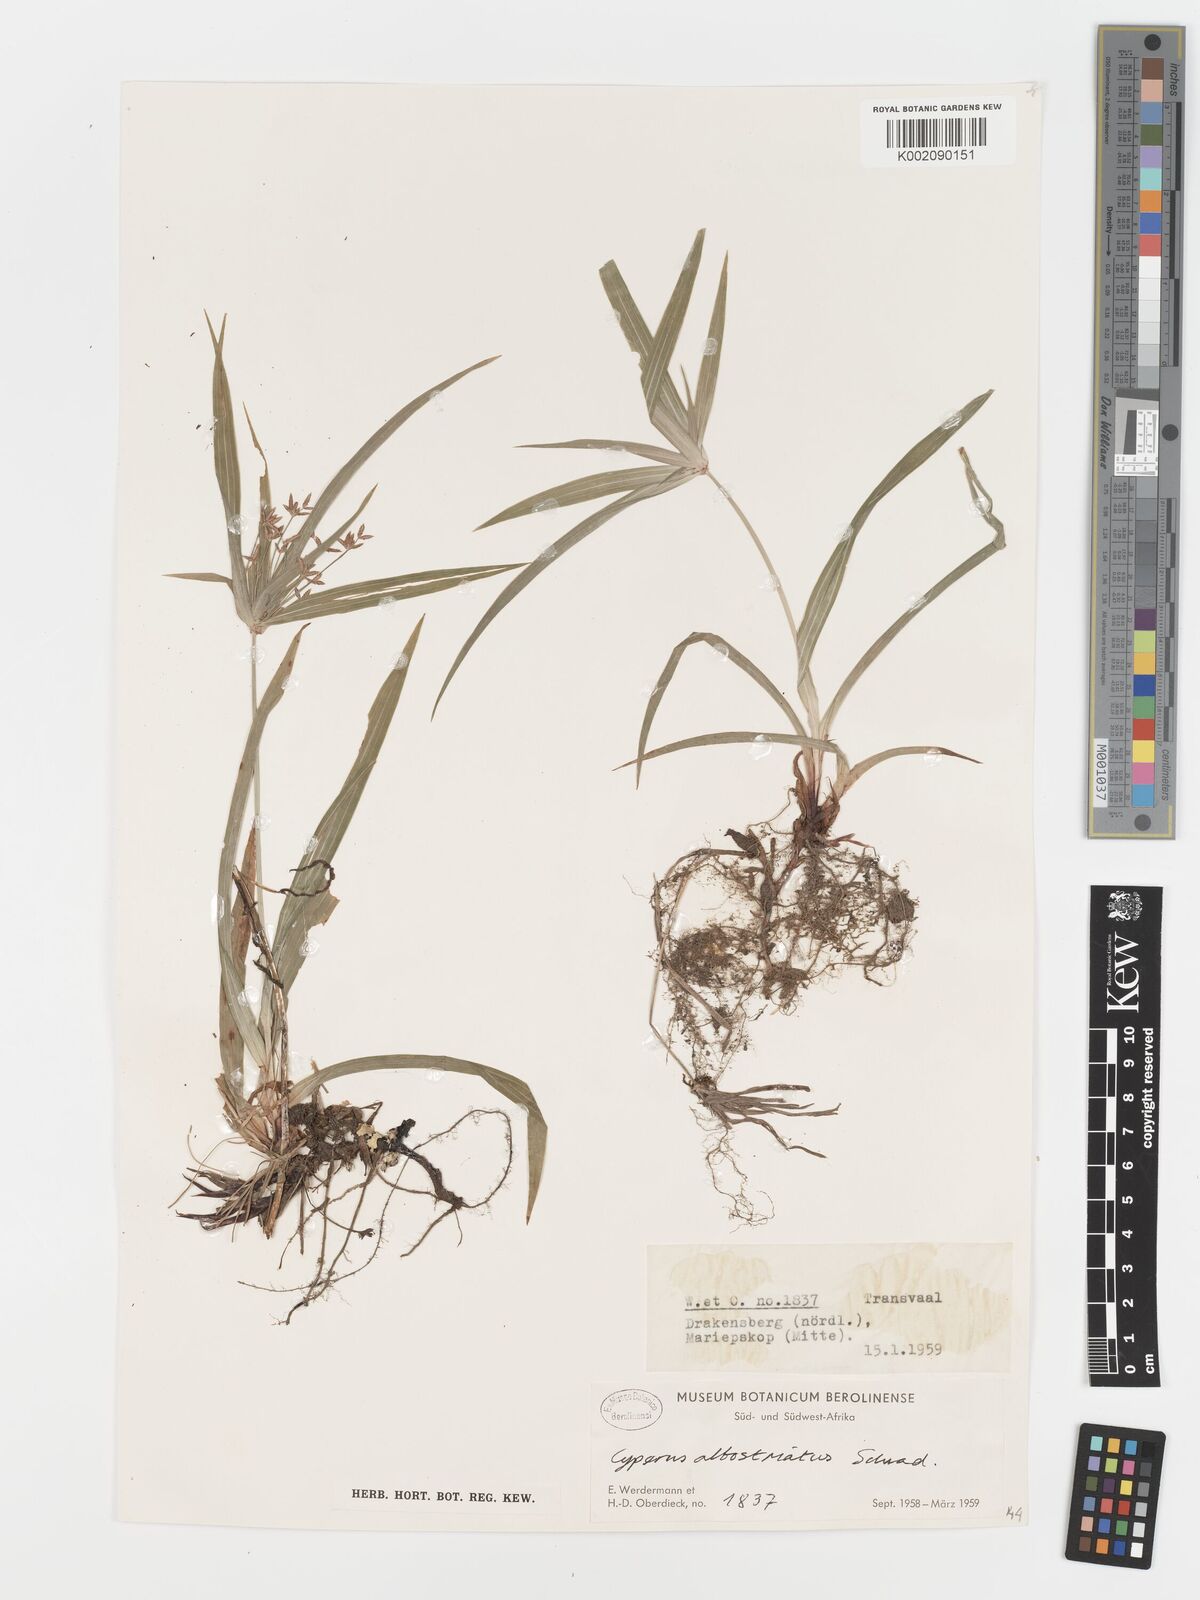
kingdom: Plantae
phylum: Tracheophyta
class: Liliopsida
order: Poales
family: Cyperaceae
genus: Cyperus
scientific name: Cyperus albostriatus
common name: Dwarf umbrella-grass
